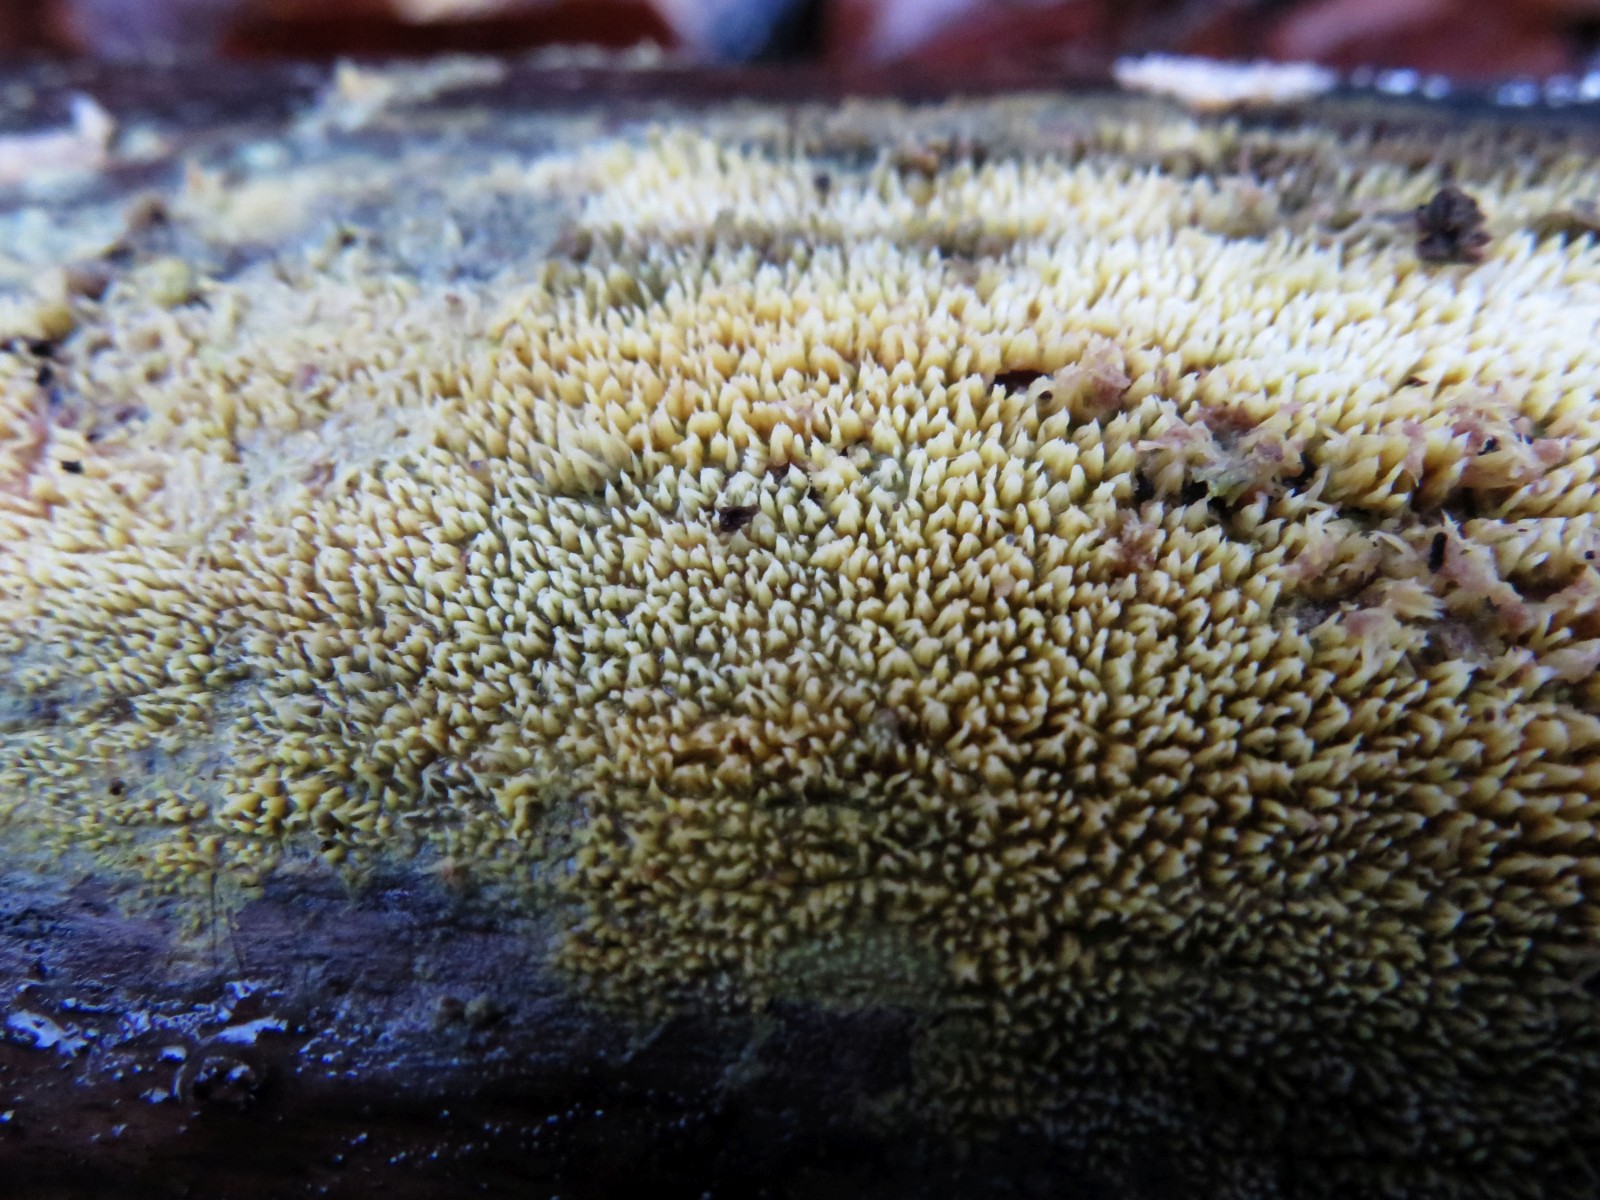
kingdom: Fungi
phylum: Basidiomycota
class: Agaricomycetes
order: Polyporales
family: Meruliaceae
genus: Mycoacia
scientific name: Mycoacia uda
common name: citrongul vokspig
